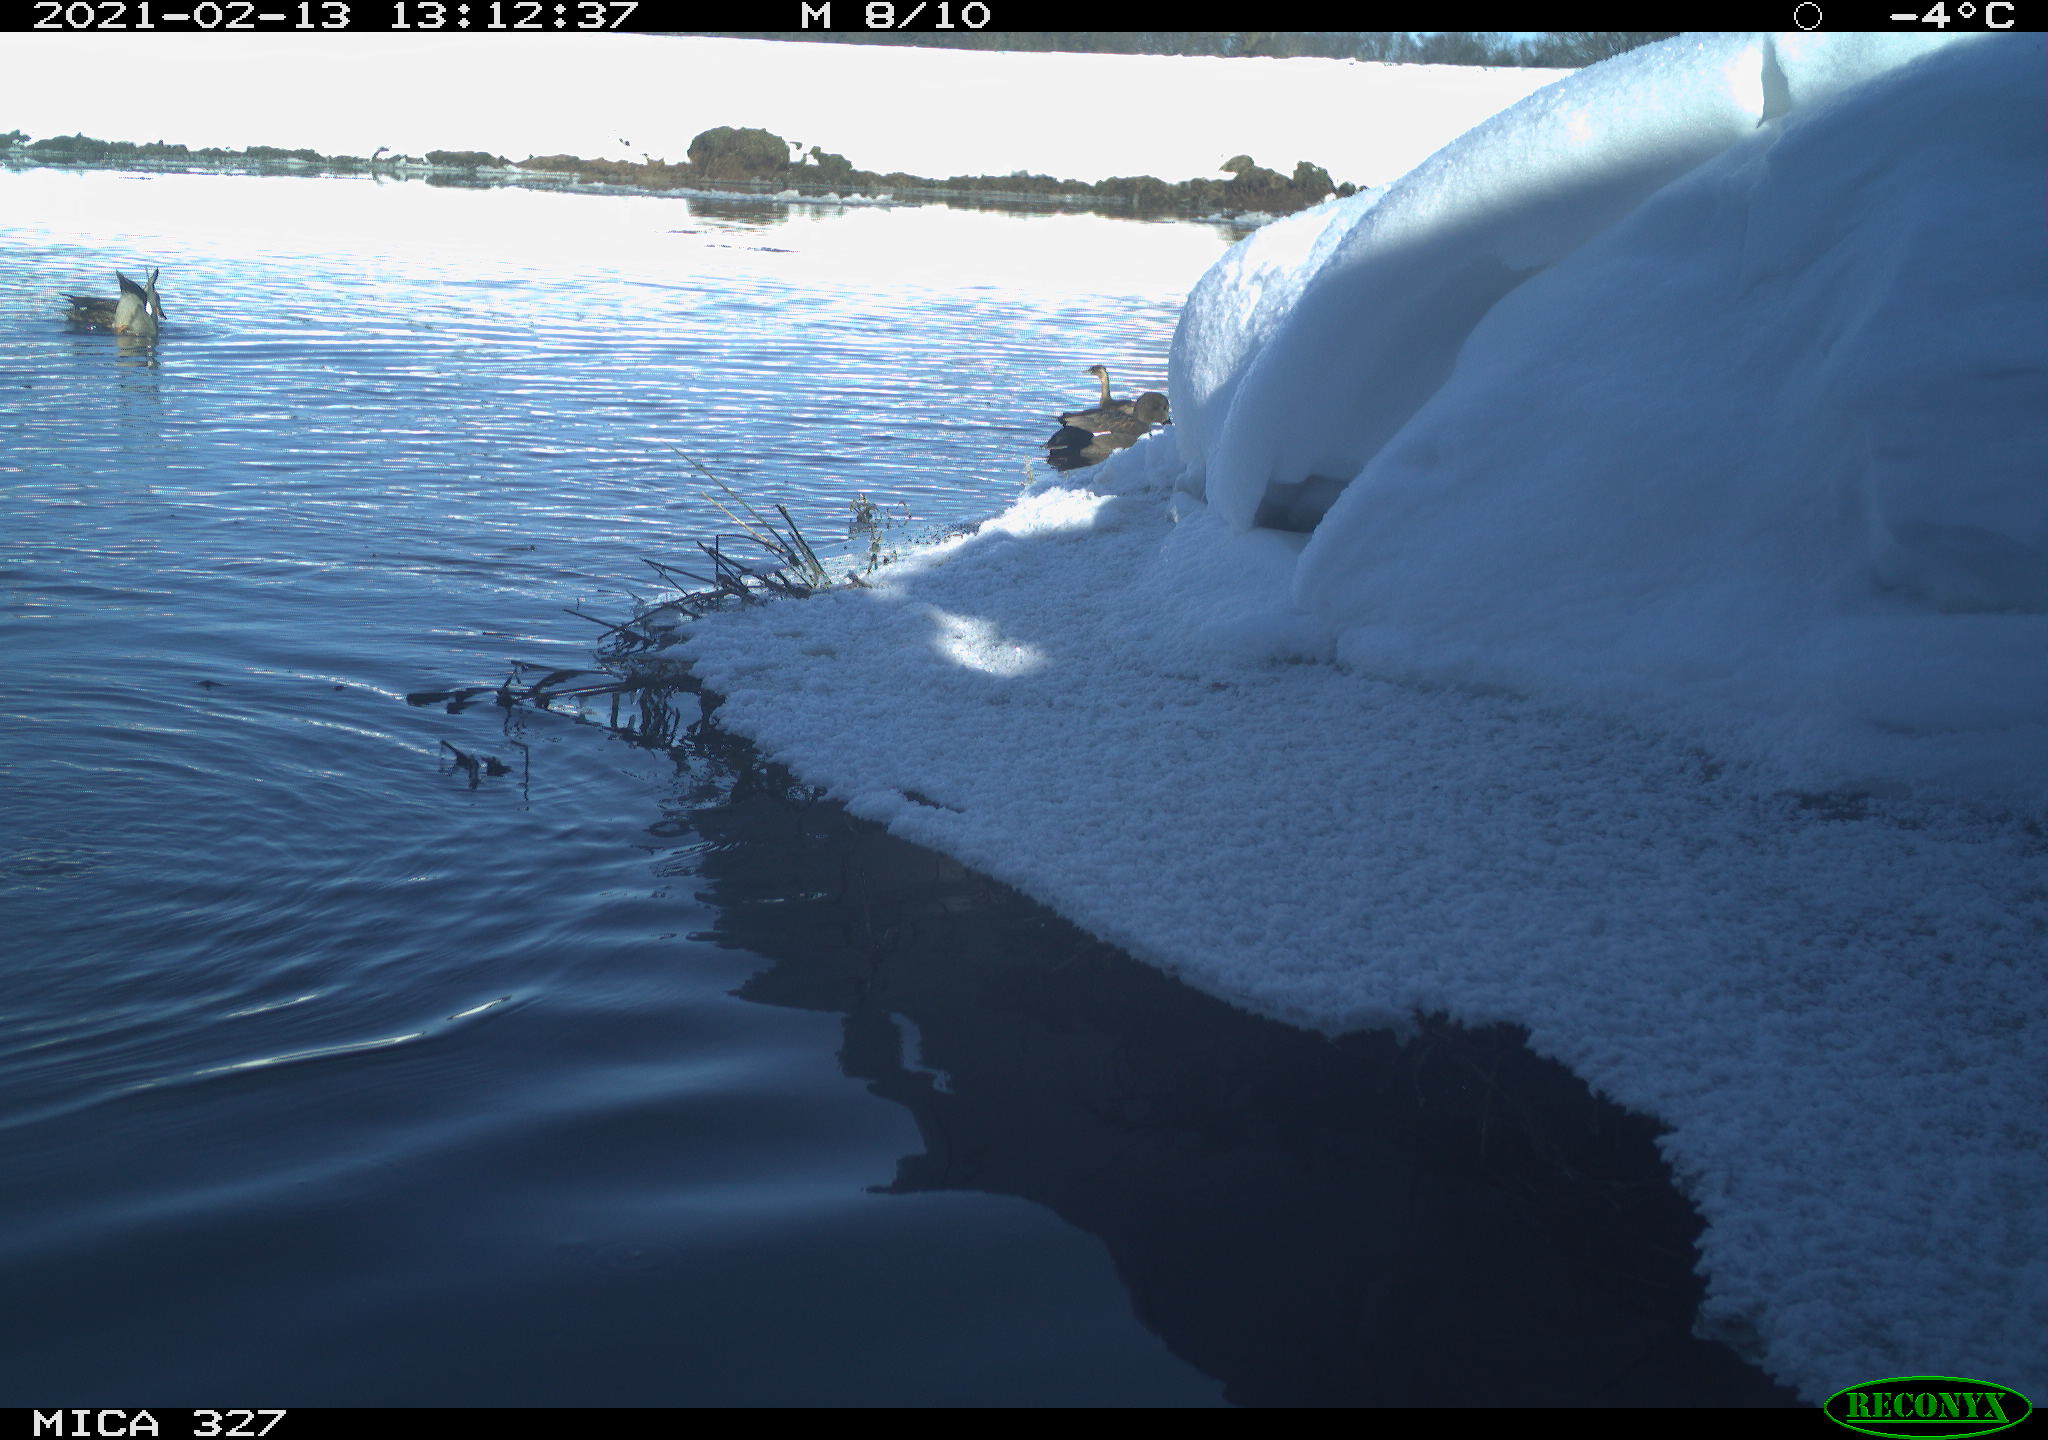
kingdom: Animalia
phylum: Chordata
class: Aves
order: Suliformes
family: Phalacrocoracidae
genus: Phalacrocorax
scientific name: Phalacrocorax carbo
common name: Great cormorant
